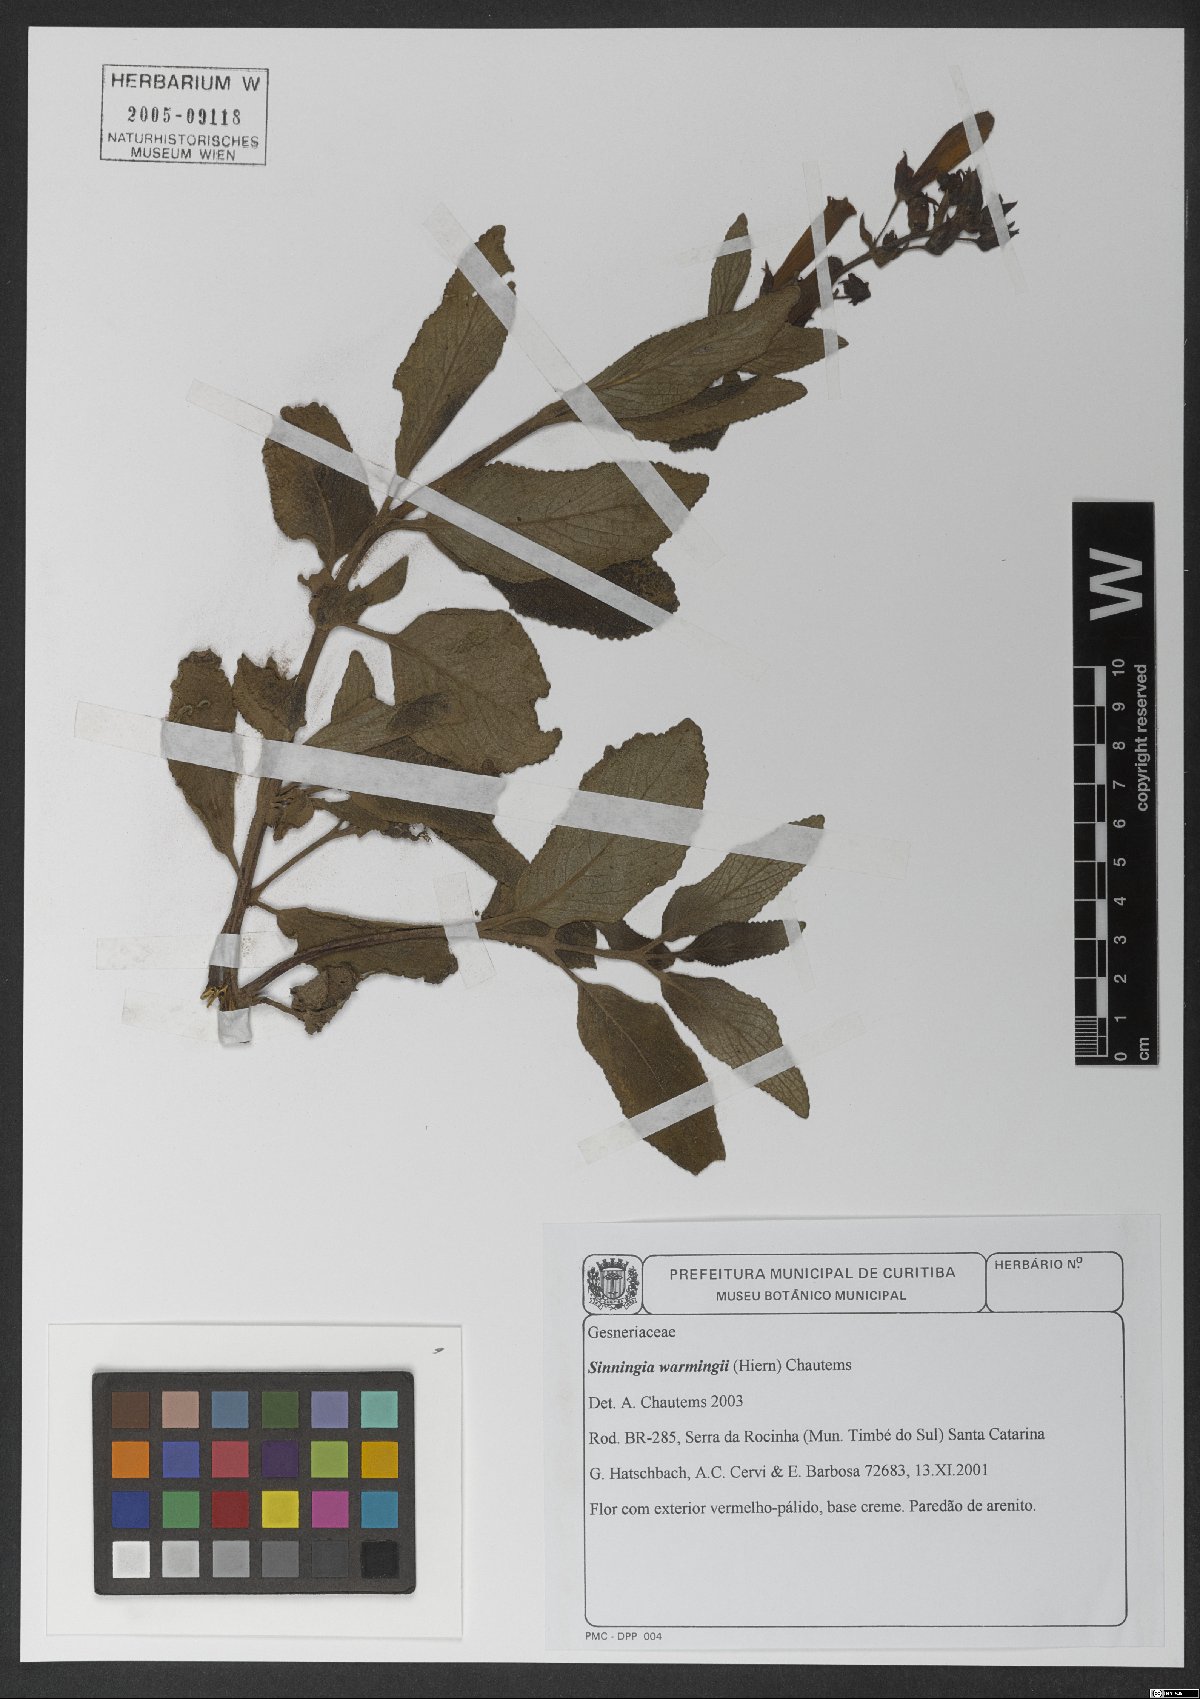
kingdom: Plantae
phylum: Tracheophyta
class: Magnoliopsida
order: Lamiales
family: Gesneriaceae
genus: Sinningia
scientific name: Sinningia warmingii
